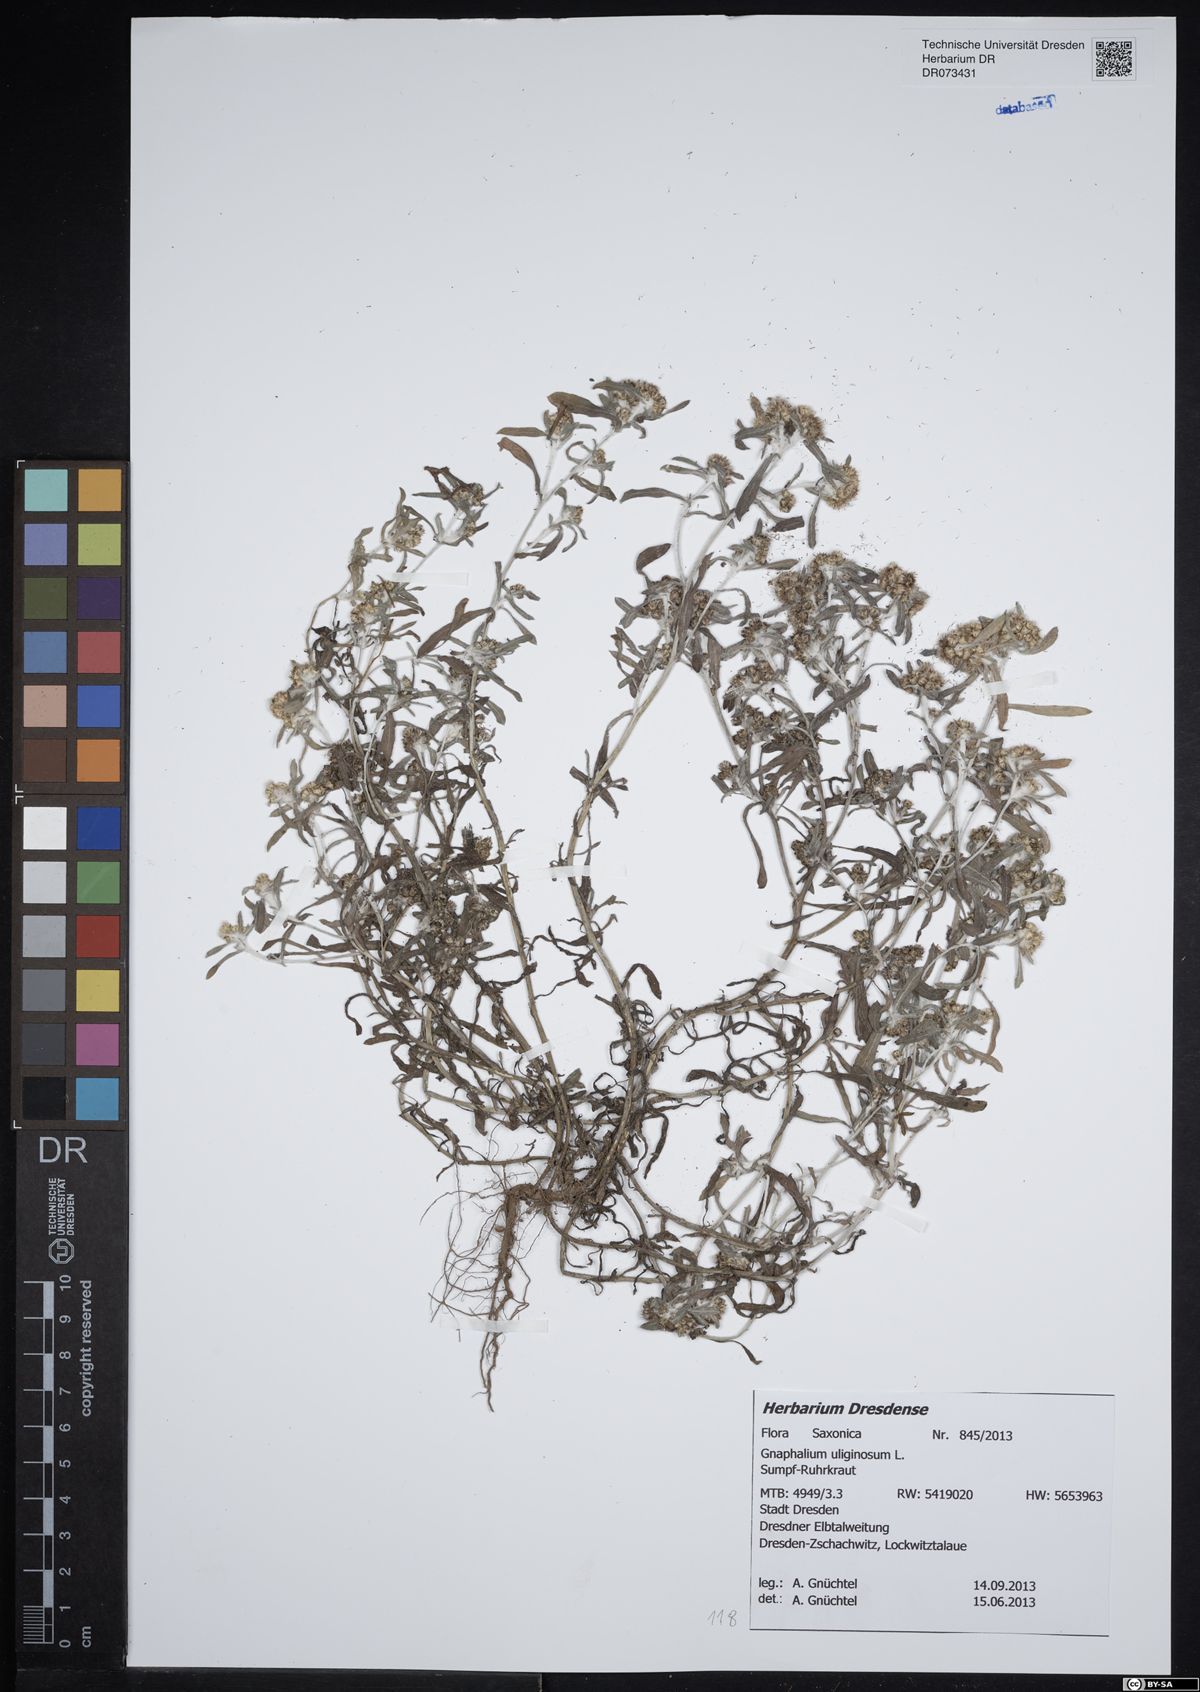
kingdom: Plantae
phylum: Tracheophyta
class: Magnoliopsida
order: Asterales
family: Asteraceae
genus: Gnaphalium
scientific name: Gnaphalium uliginosum
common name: Marsh cudweed
